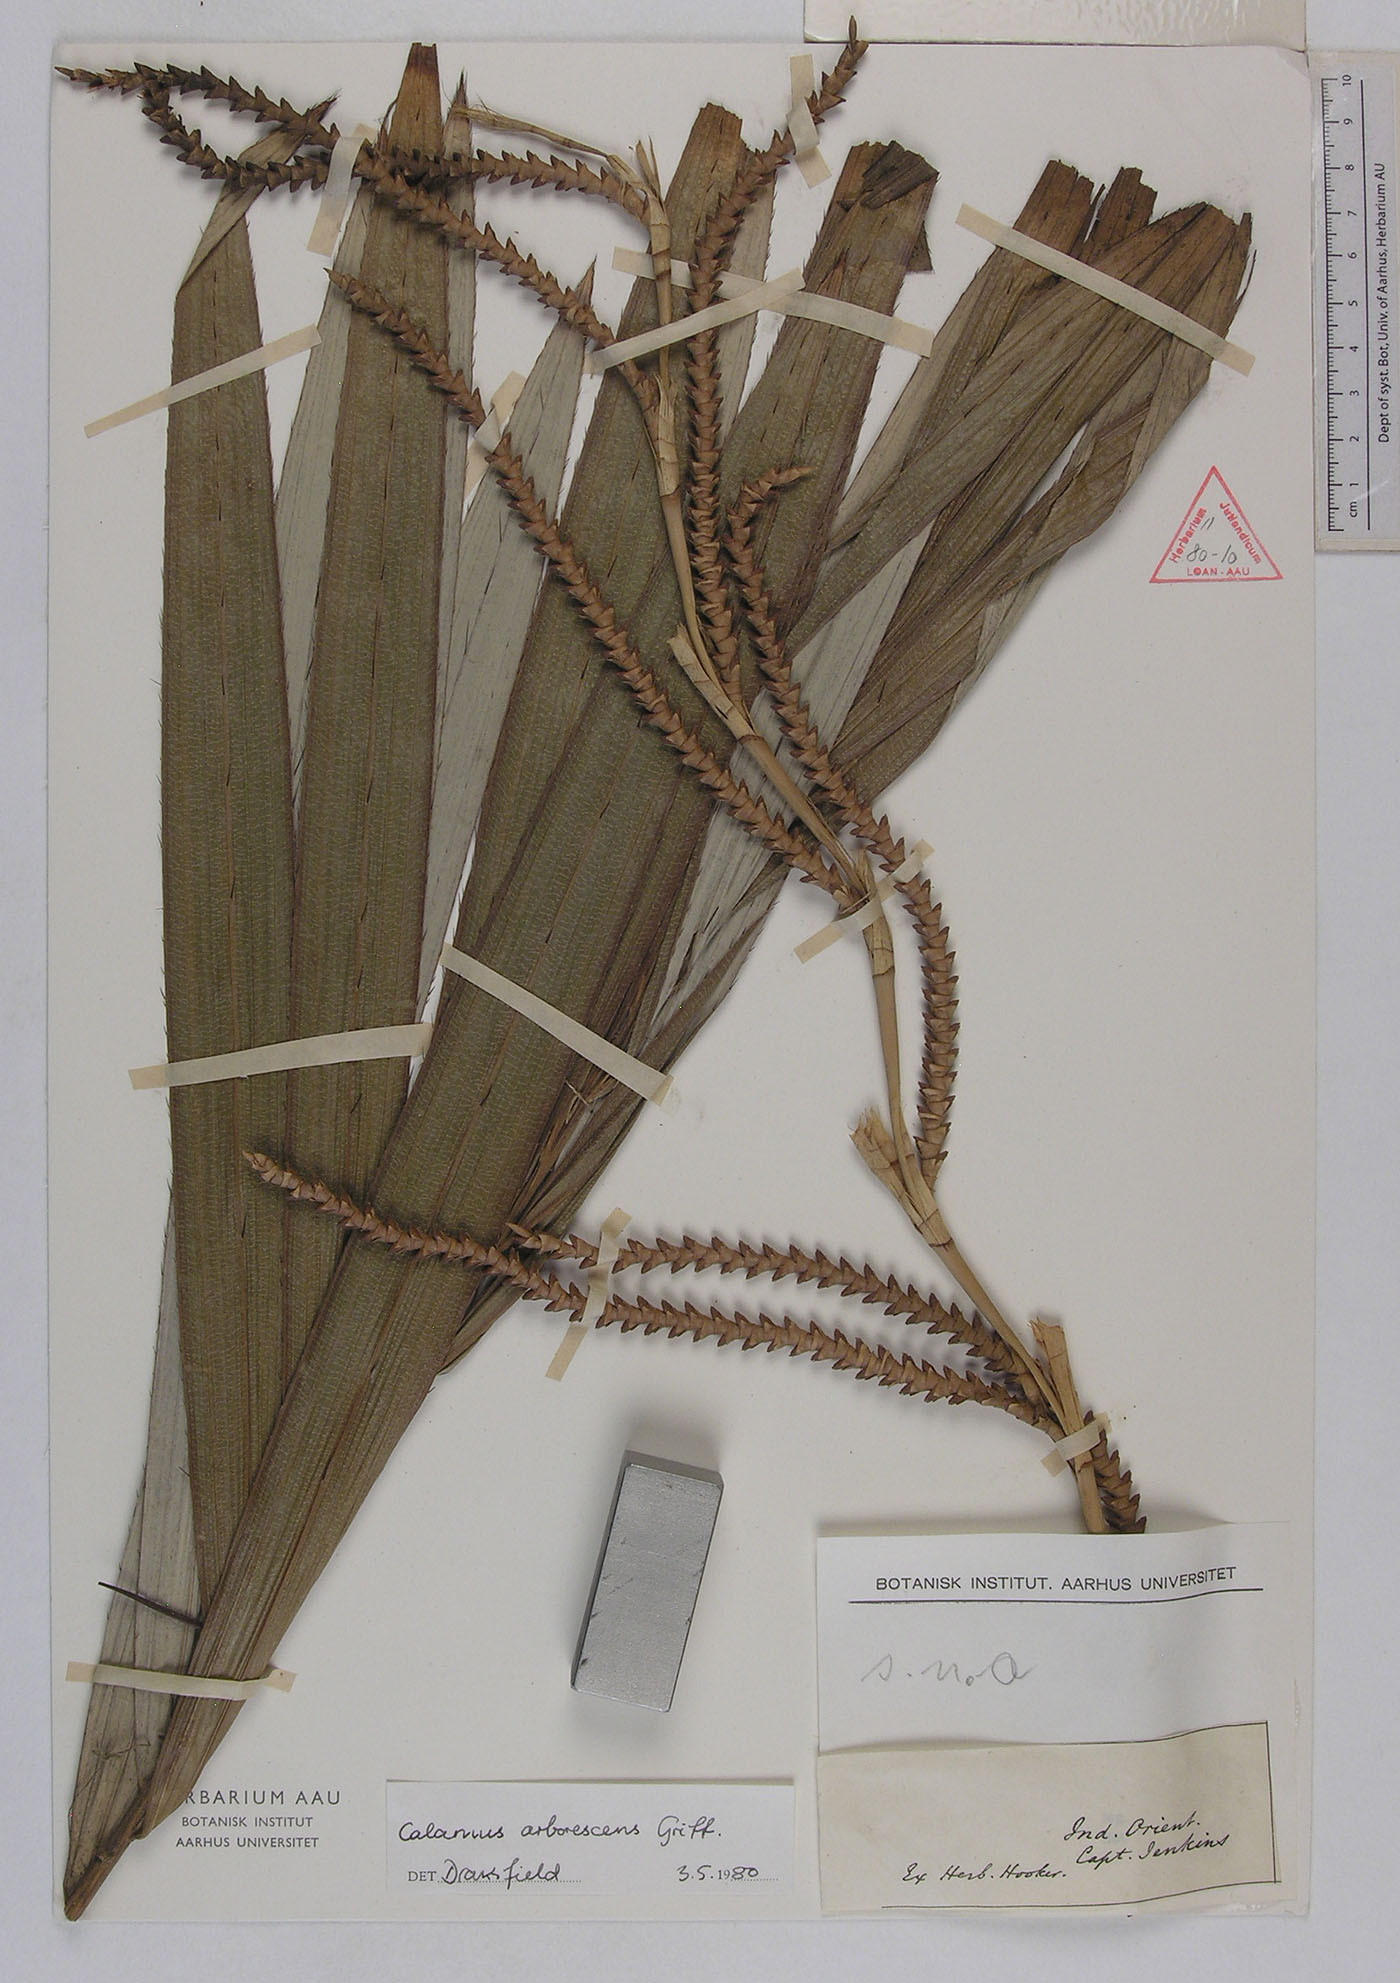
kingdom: Plantae
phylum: Tracheophyta
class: Liliopsida
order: Arecales
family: Arecaceae
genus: Calamus
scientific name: Calamus arborescens
